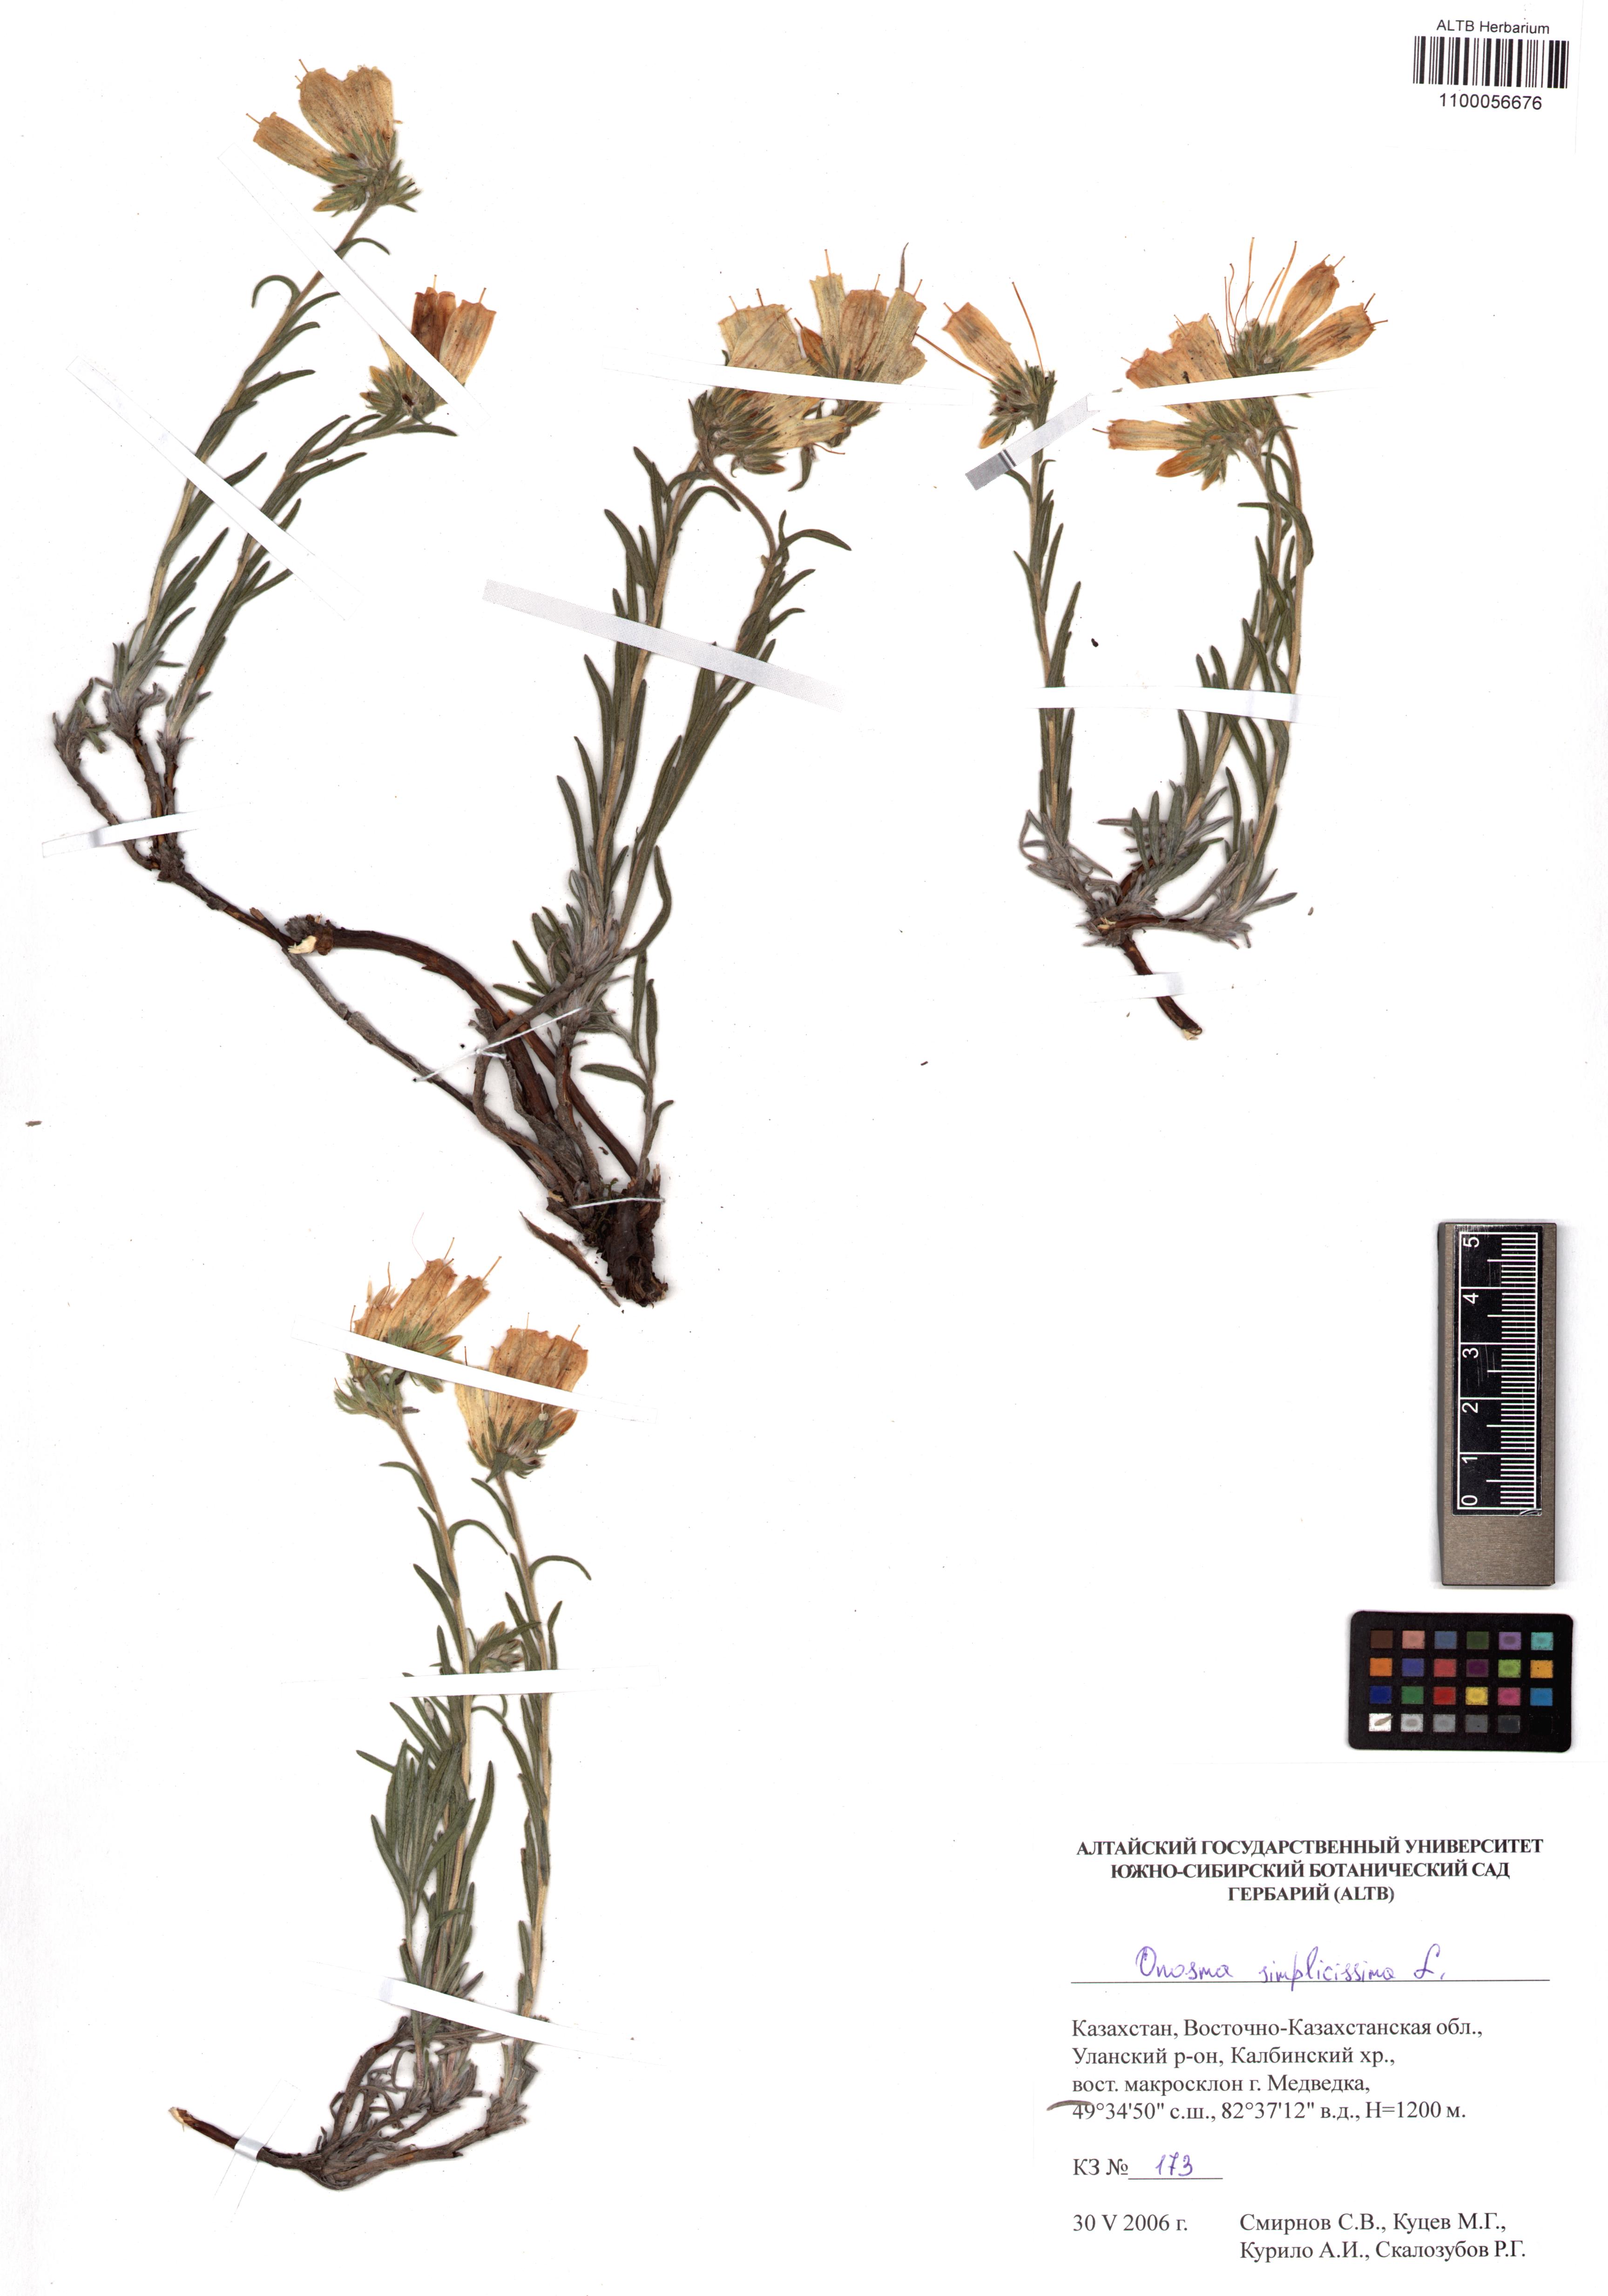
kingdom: Plantae
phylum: Tracheophyta
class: Magnoliopsida
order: Boraginales
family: Boraginaceae
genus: Onosma
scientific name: Onosma simplicissima
